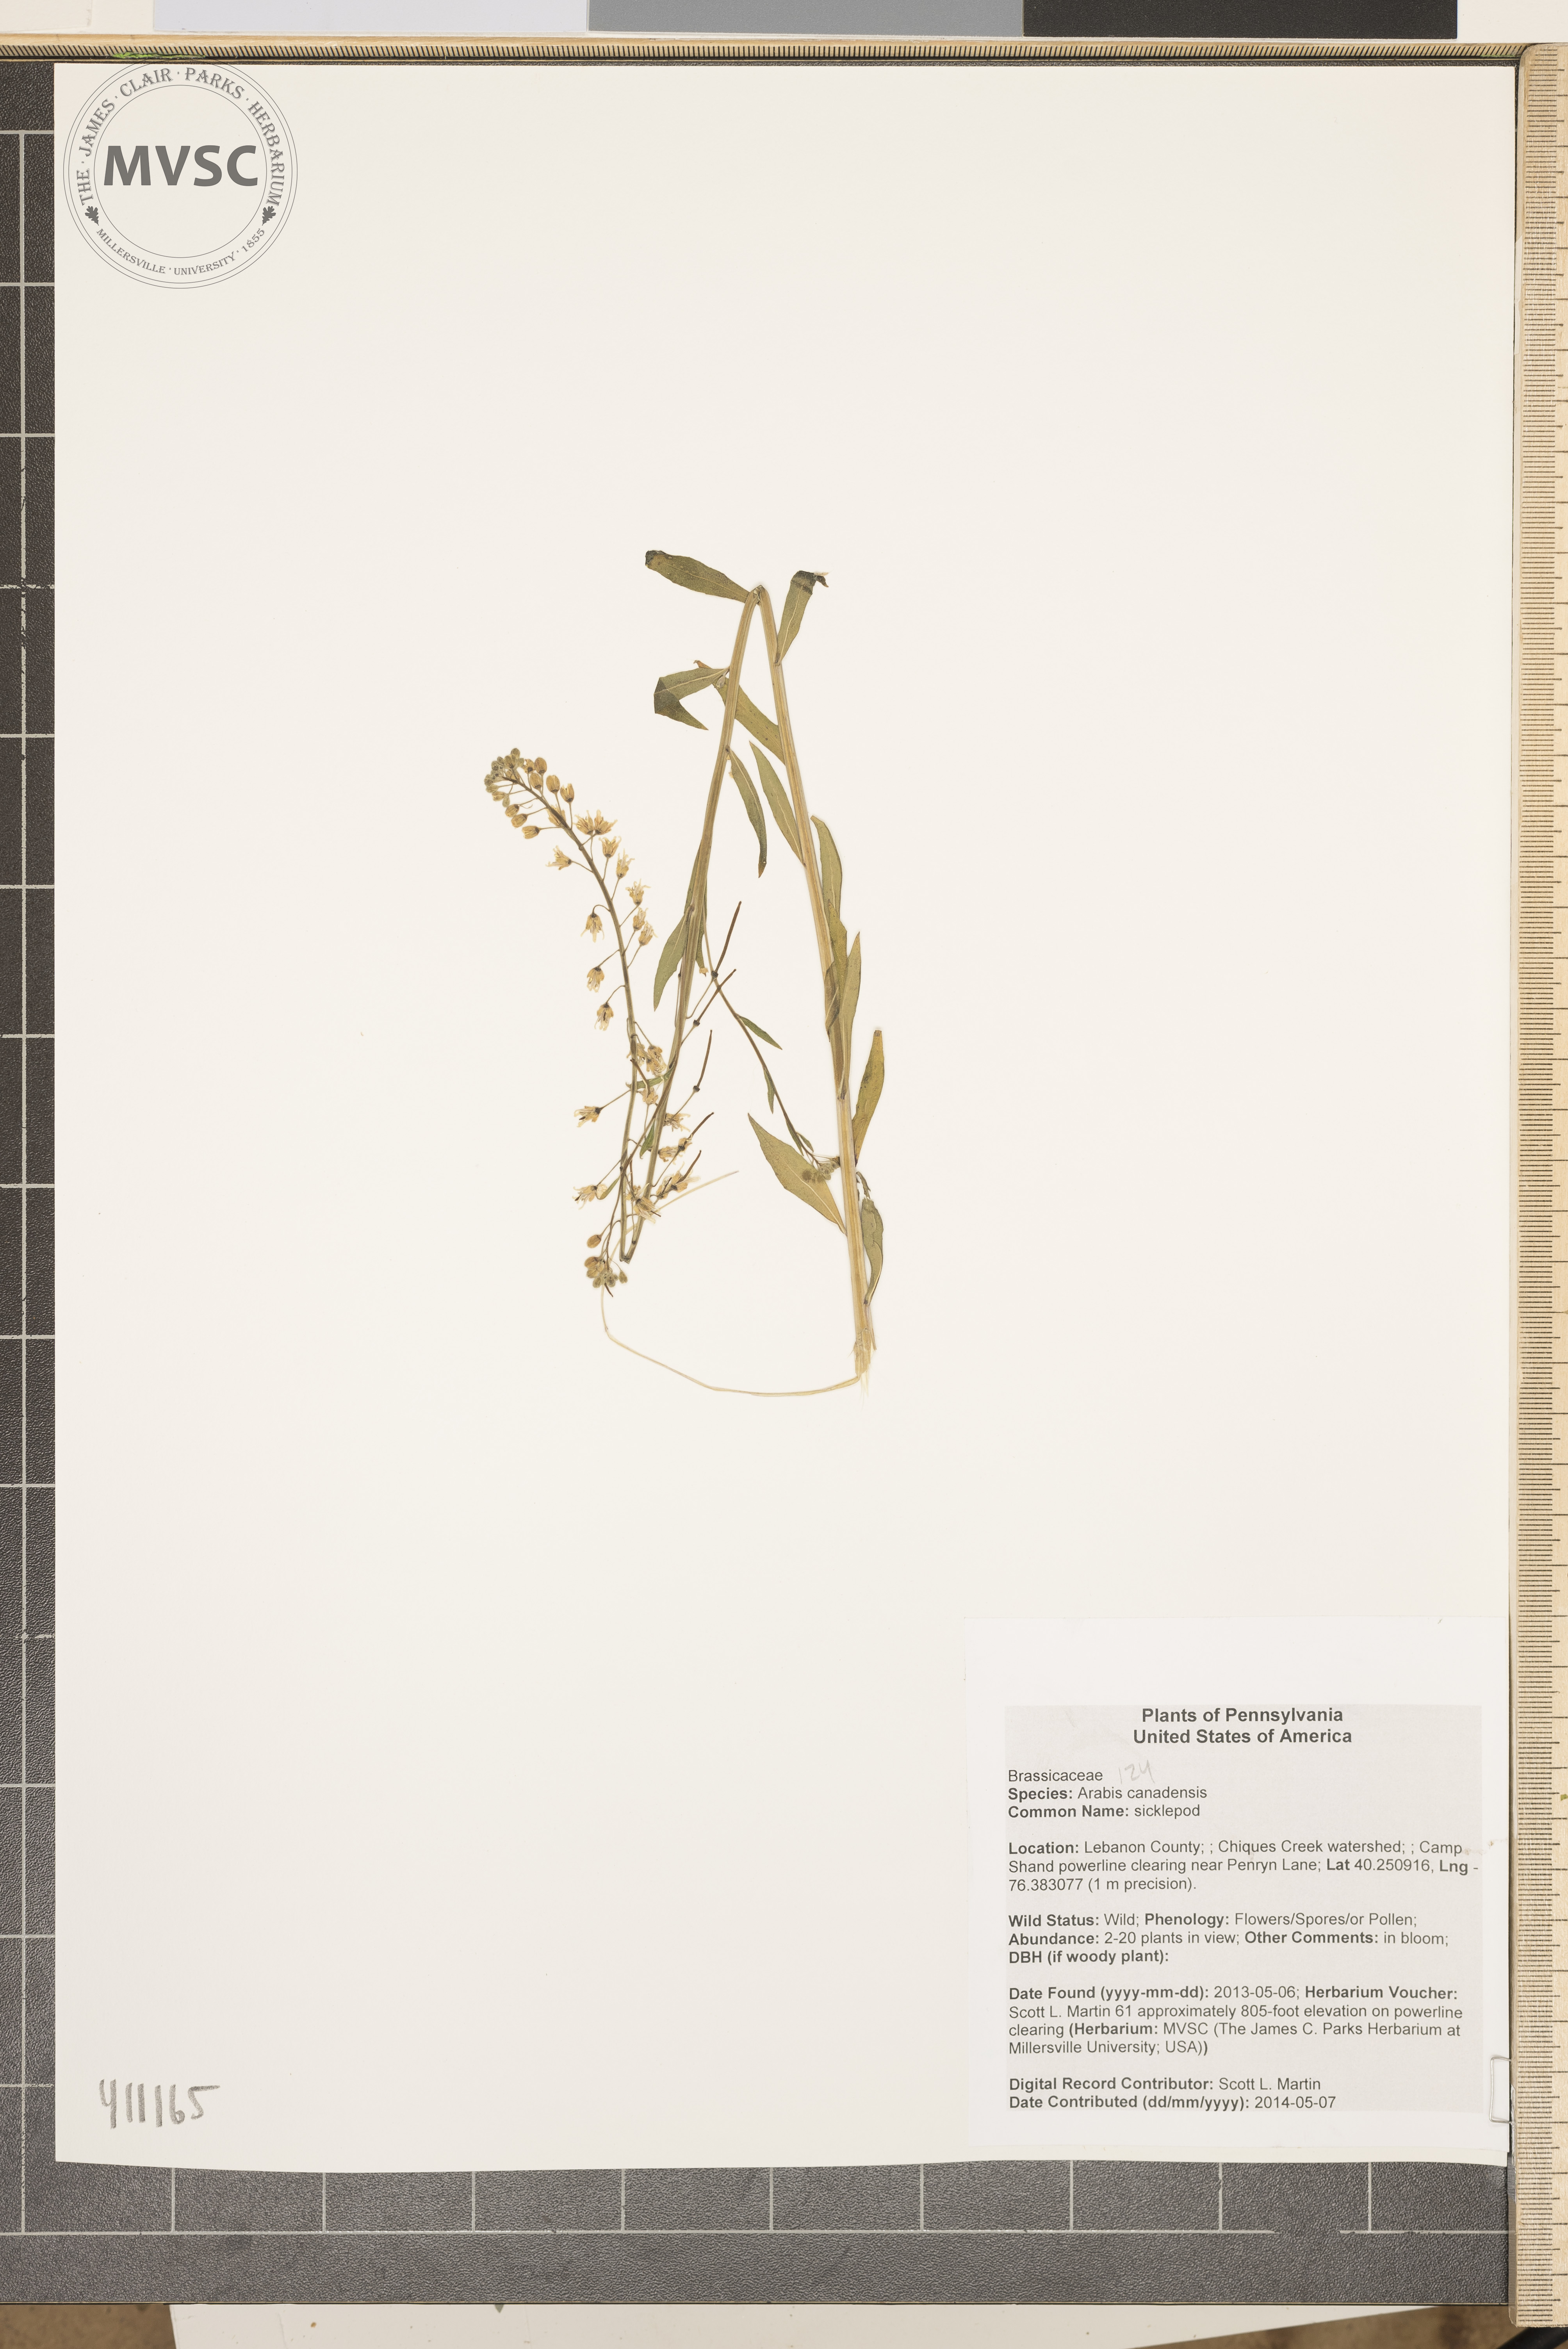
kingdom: Plantae
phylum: Tracheophyta
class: Magnoliopsida
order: Brassicales
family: Brassicaceae
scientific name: Brassicaceae
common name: sicklepod
